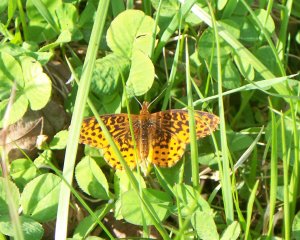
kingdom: Animalia
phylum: Arthropoda
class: Insecta
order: Lepidoptera
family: Nymphalidae
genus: Clossiana
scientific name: Clossiana toddi
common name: Meadow Fritillary
